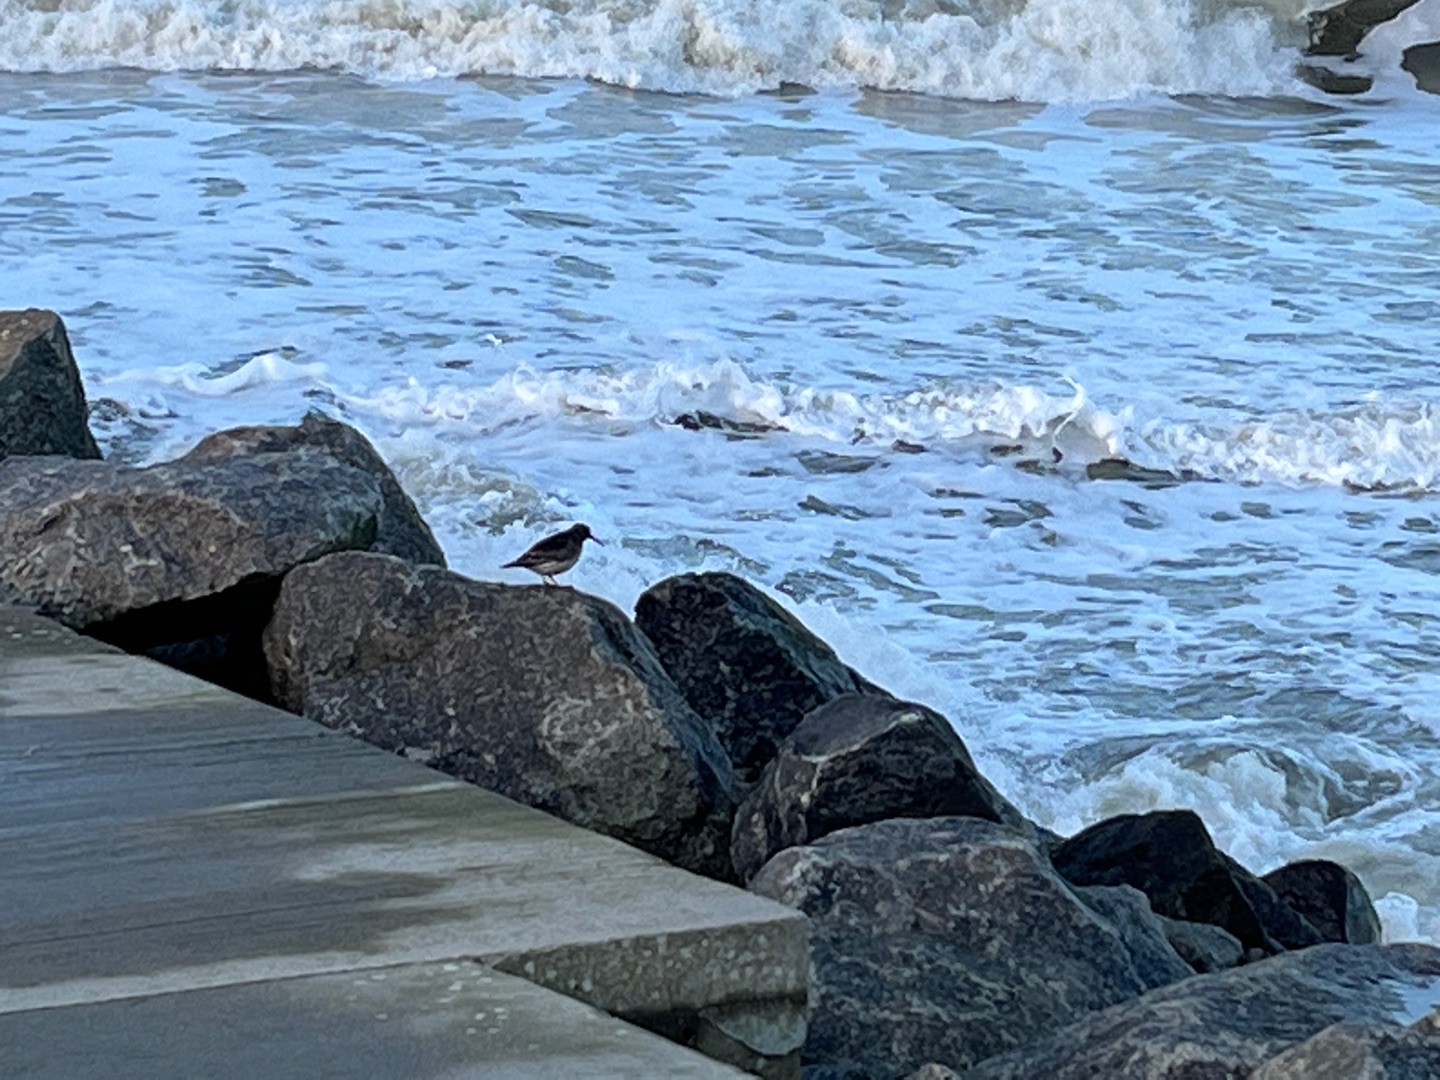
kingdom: Animalia
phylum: Chordata
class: Aves
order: Charadriiformes
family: Scolopacidae
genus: Calidris
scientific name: Calidris maritima
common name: Sortgrå ryle
